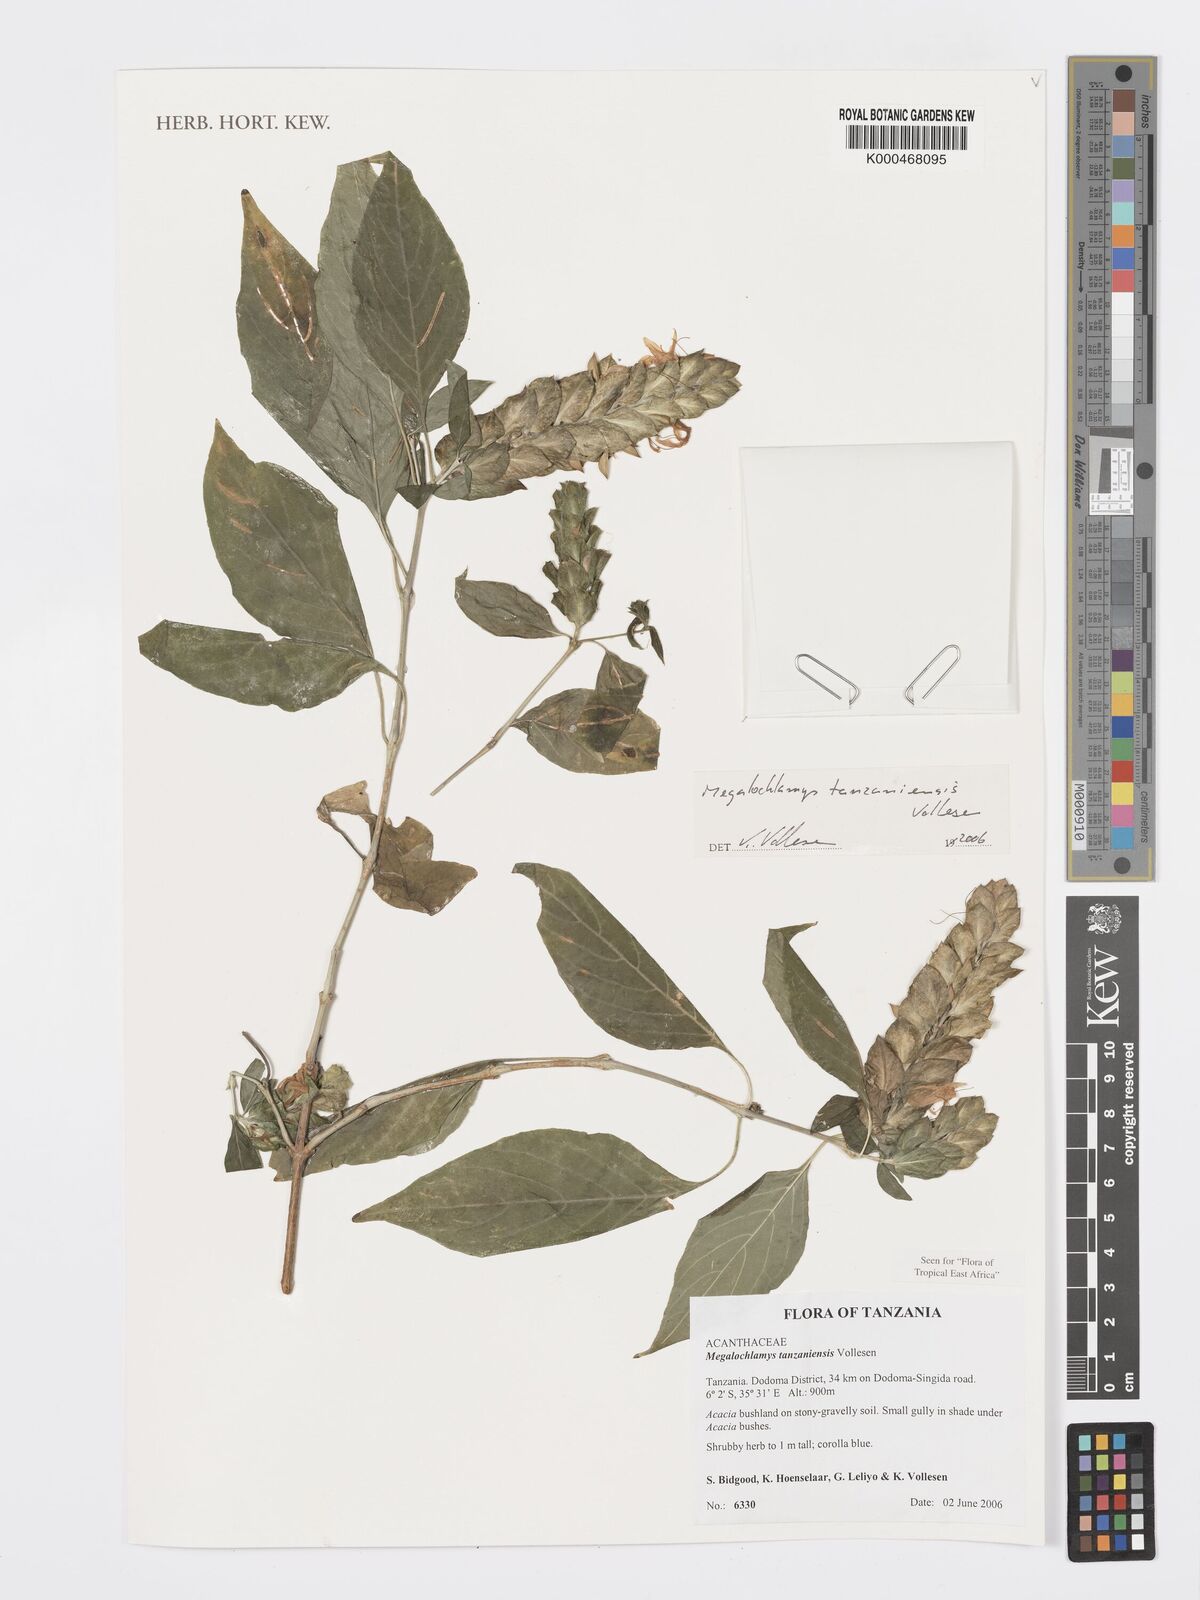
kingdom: Plantae
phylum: Tracheophyta
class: Magnoliopsida
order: Lamiales
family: Acanthaceae
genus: Megalochlamys
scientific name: Megalochlamys tanzaniensis
